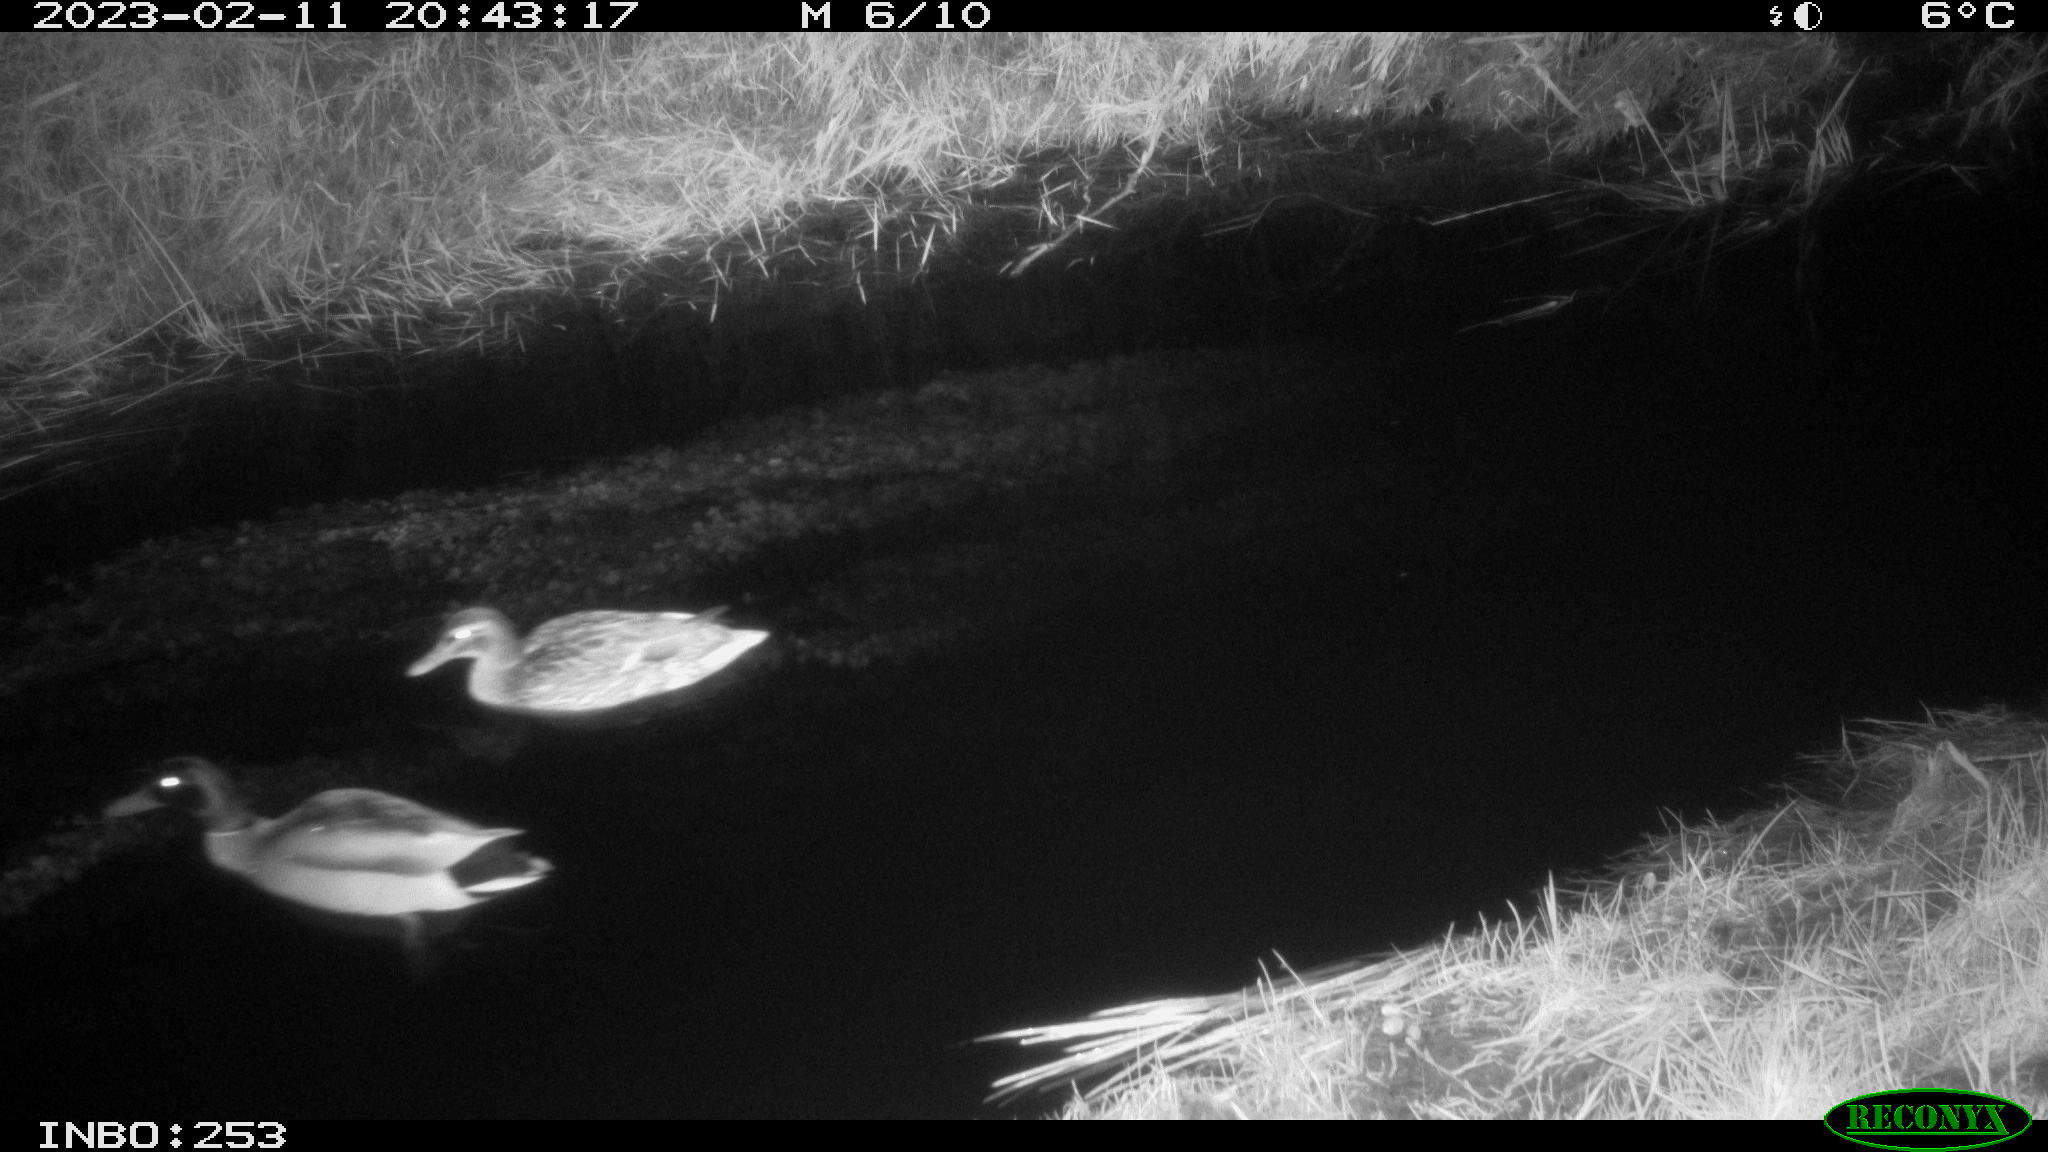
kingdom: Animalia
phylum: Chordata
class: Aves
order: Anseriformes
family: Anatidae
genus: Anas
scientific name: Anas
